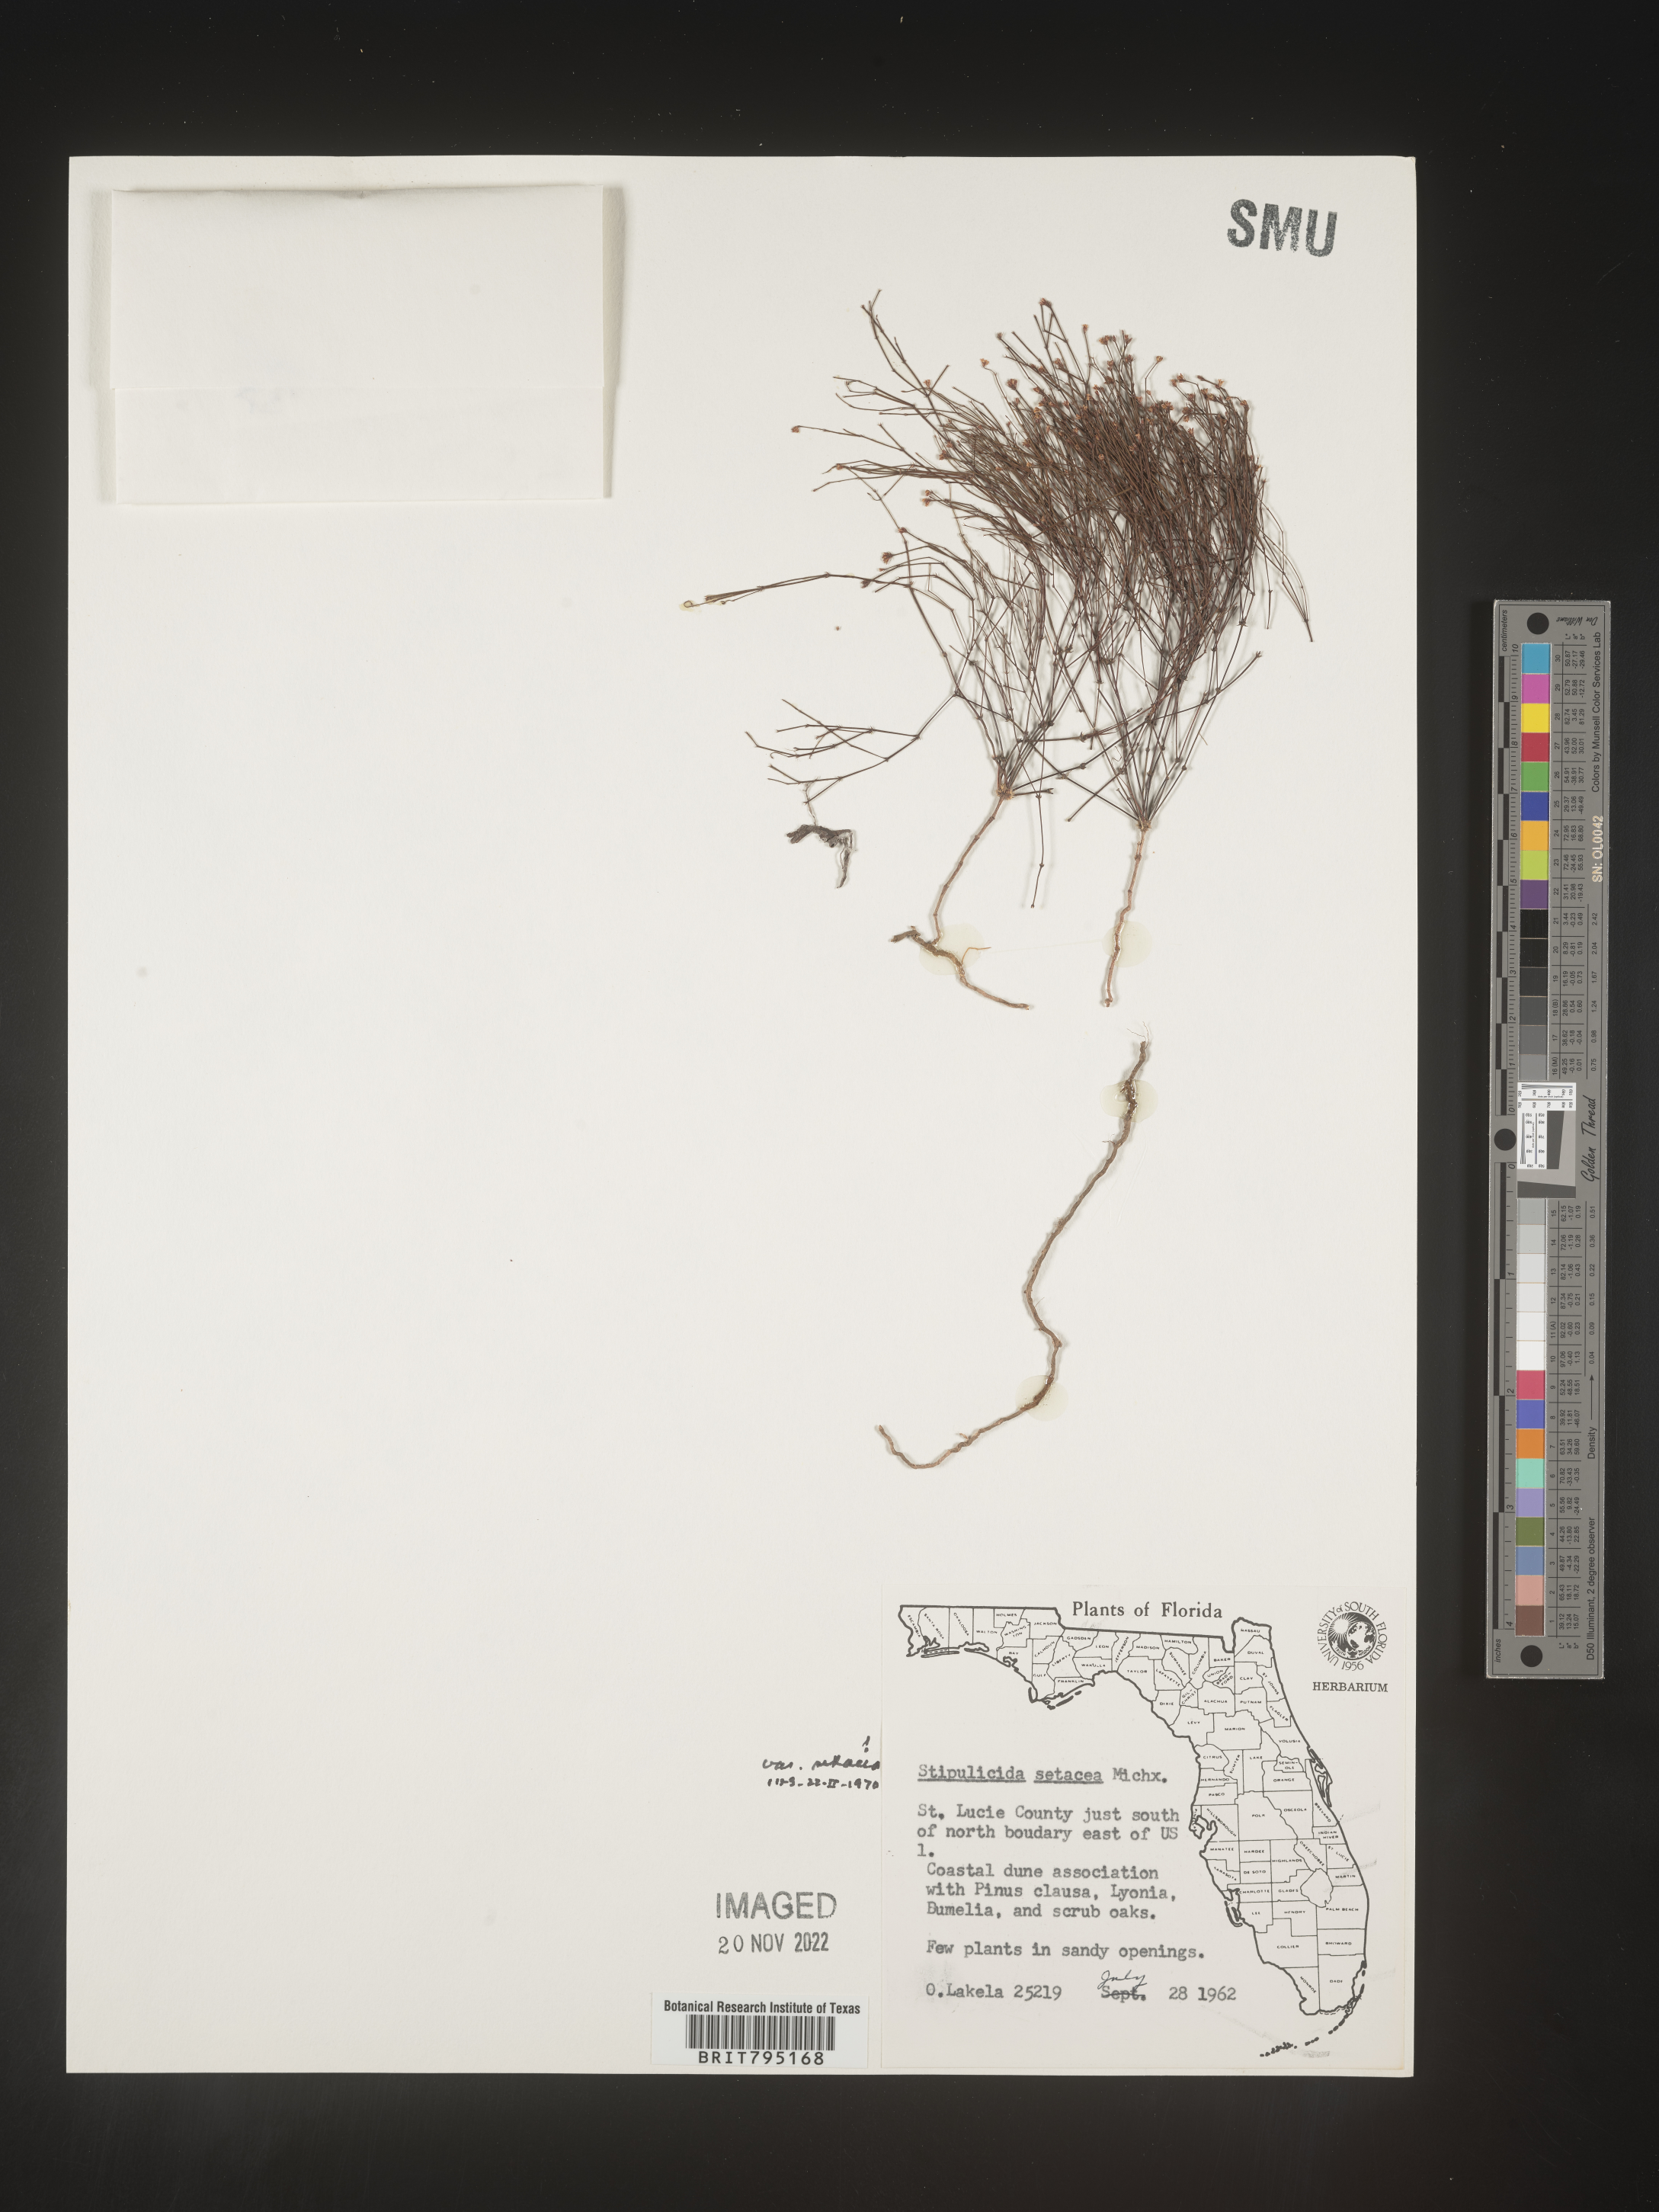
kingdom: Plantae
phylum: Tracheophyta
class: Magnoliopsida
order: Caryophyllales
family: Caryophyllaceae
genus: Stipulicida
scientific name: Stipulicida
